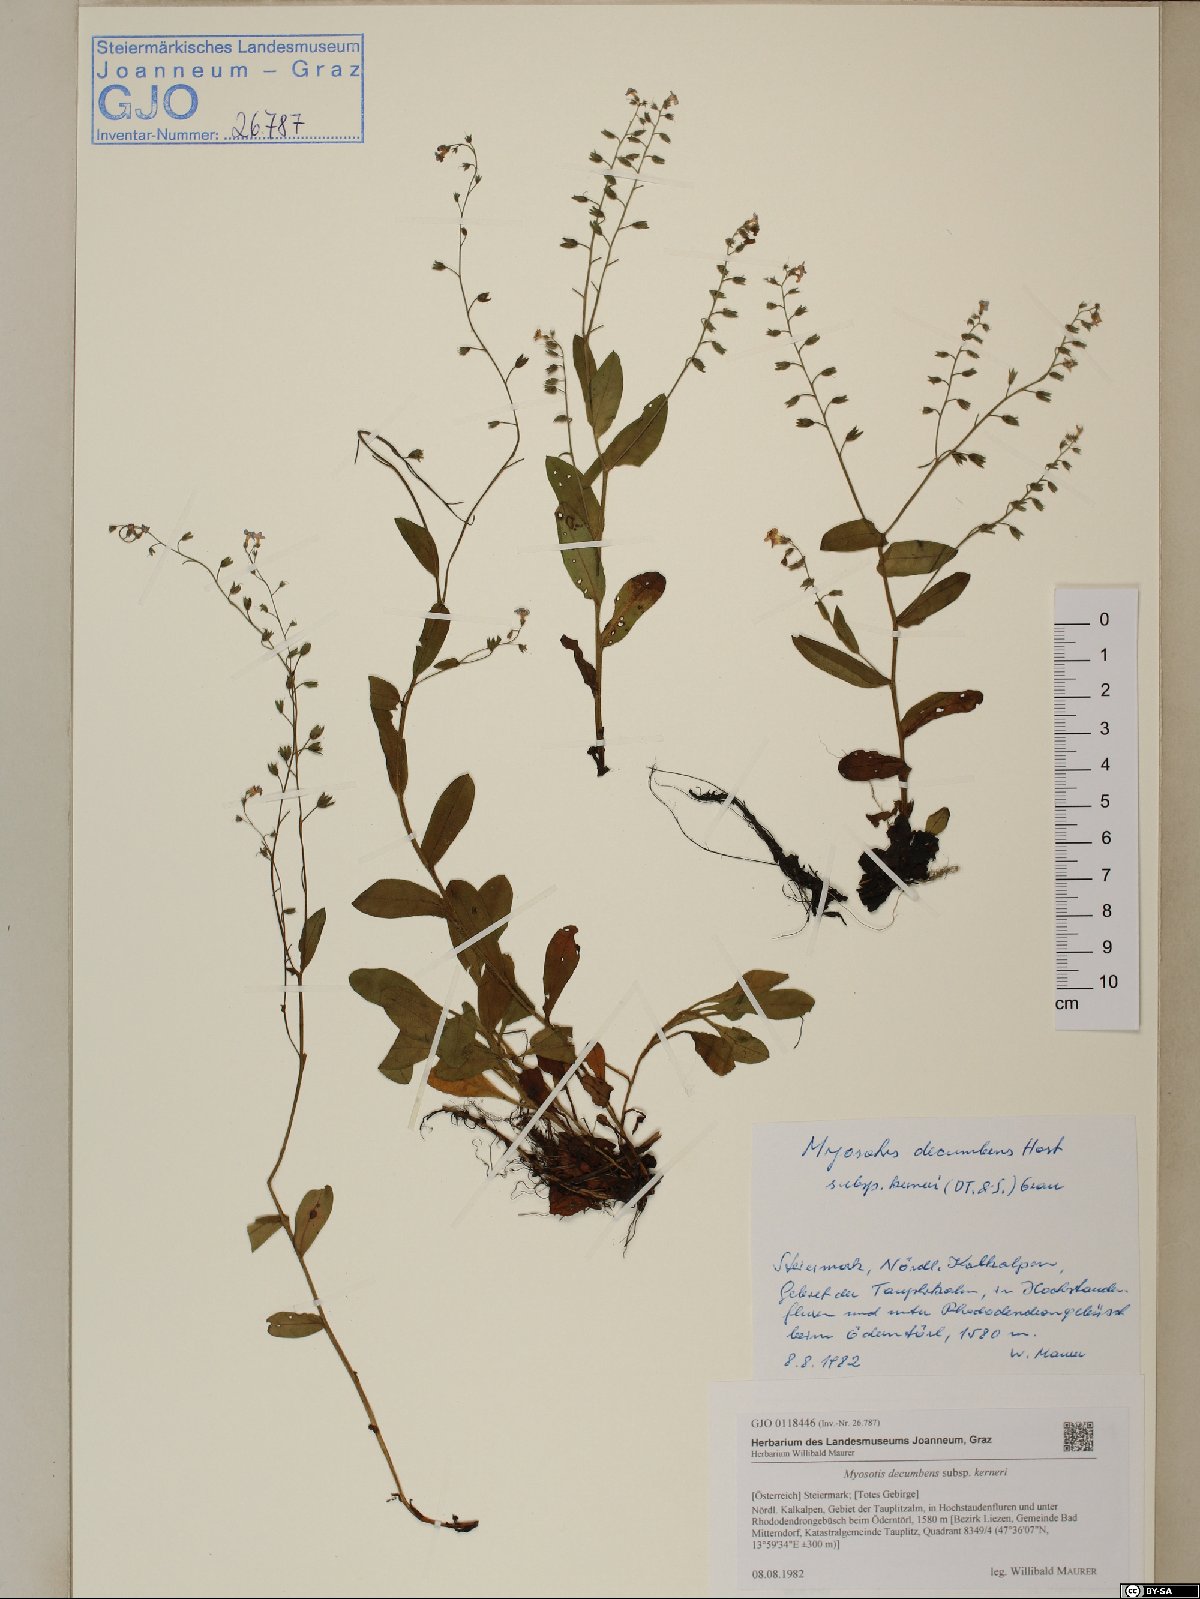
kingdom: Plantae
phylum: Tracheophyta
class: Magnoliopsida
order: Boraginales
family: Boraginaceae
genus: Myosotis
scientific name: Myosotis decumbens
